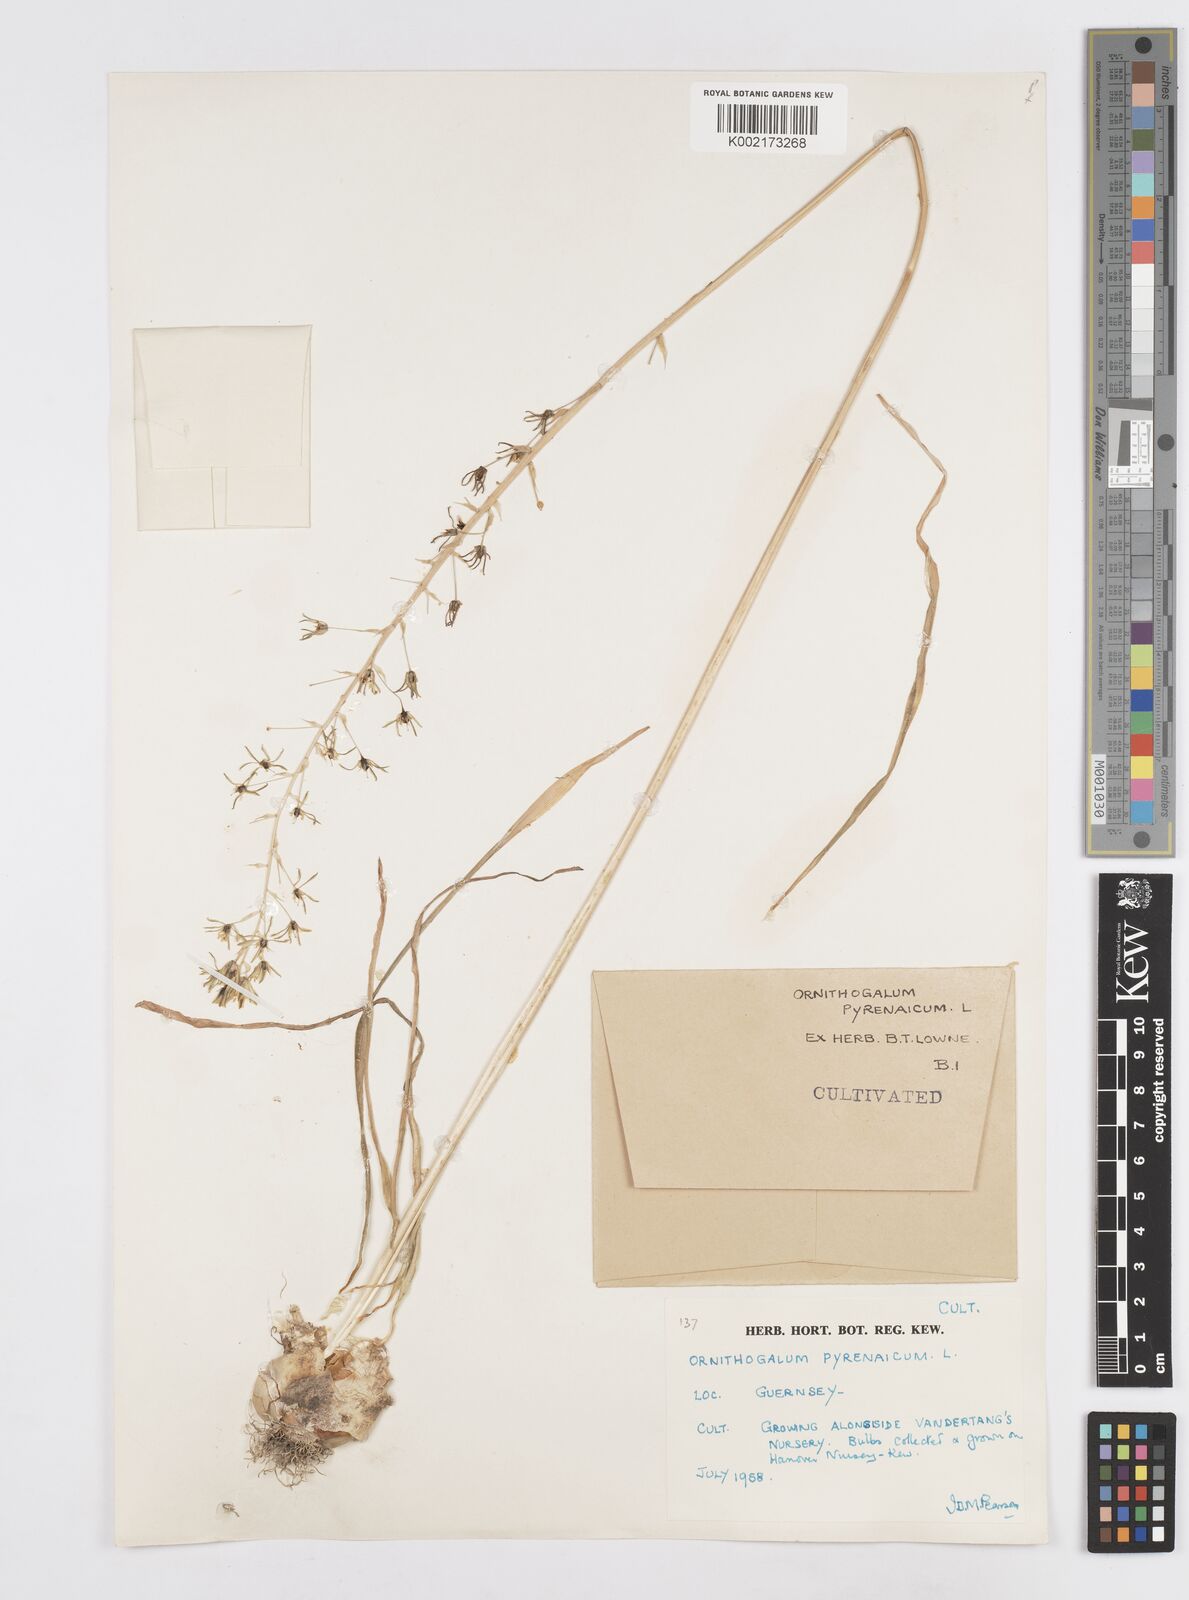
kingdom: Plantae
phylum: Tracheophyta
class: Liliopsida
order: Asparagales
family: Asparagaceae
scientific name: Asparagaceae
